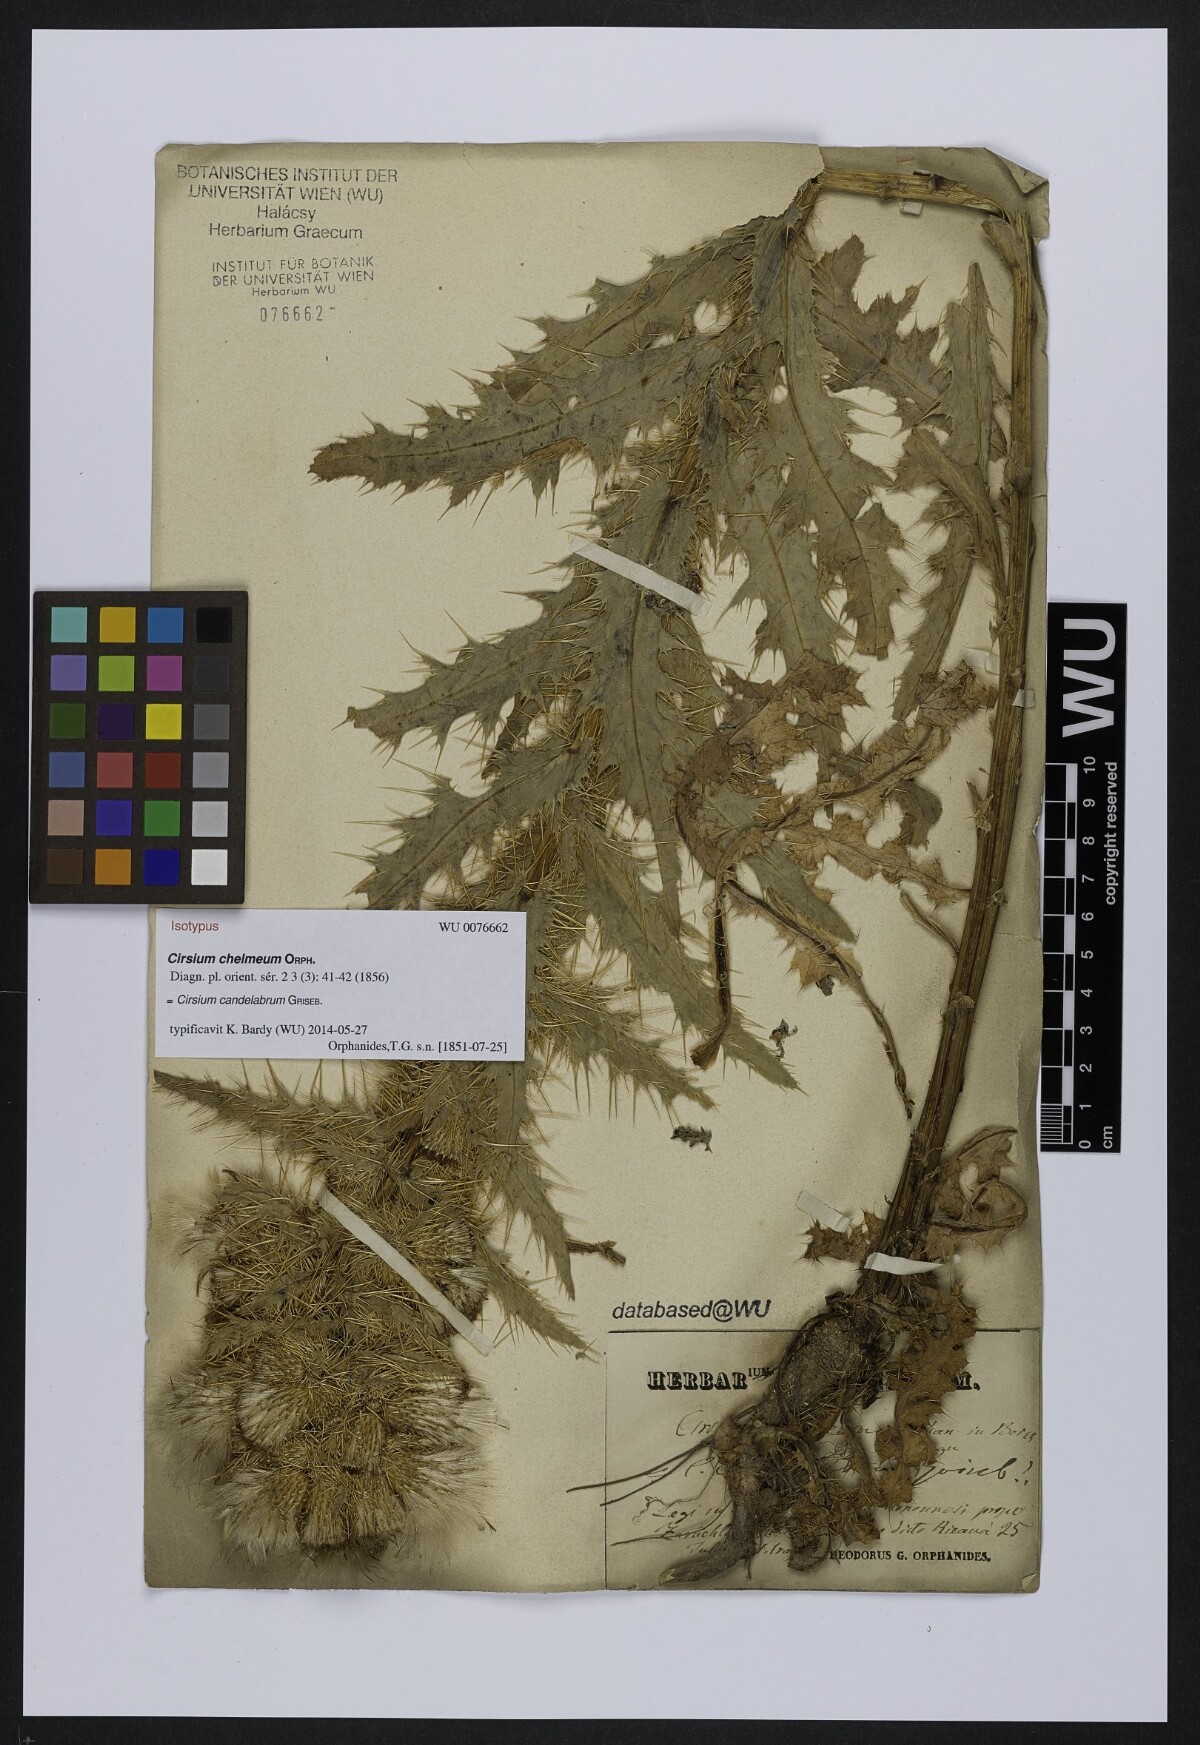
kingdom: Plantae
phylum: Tracheophyta
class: Magnoliopsida
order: Asterales
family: Asteraceae
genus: Cirsium
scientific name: Cirsium candelabrum
